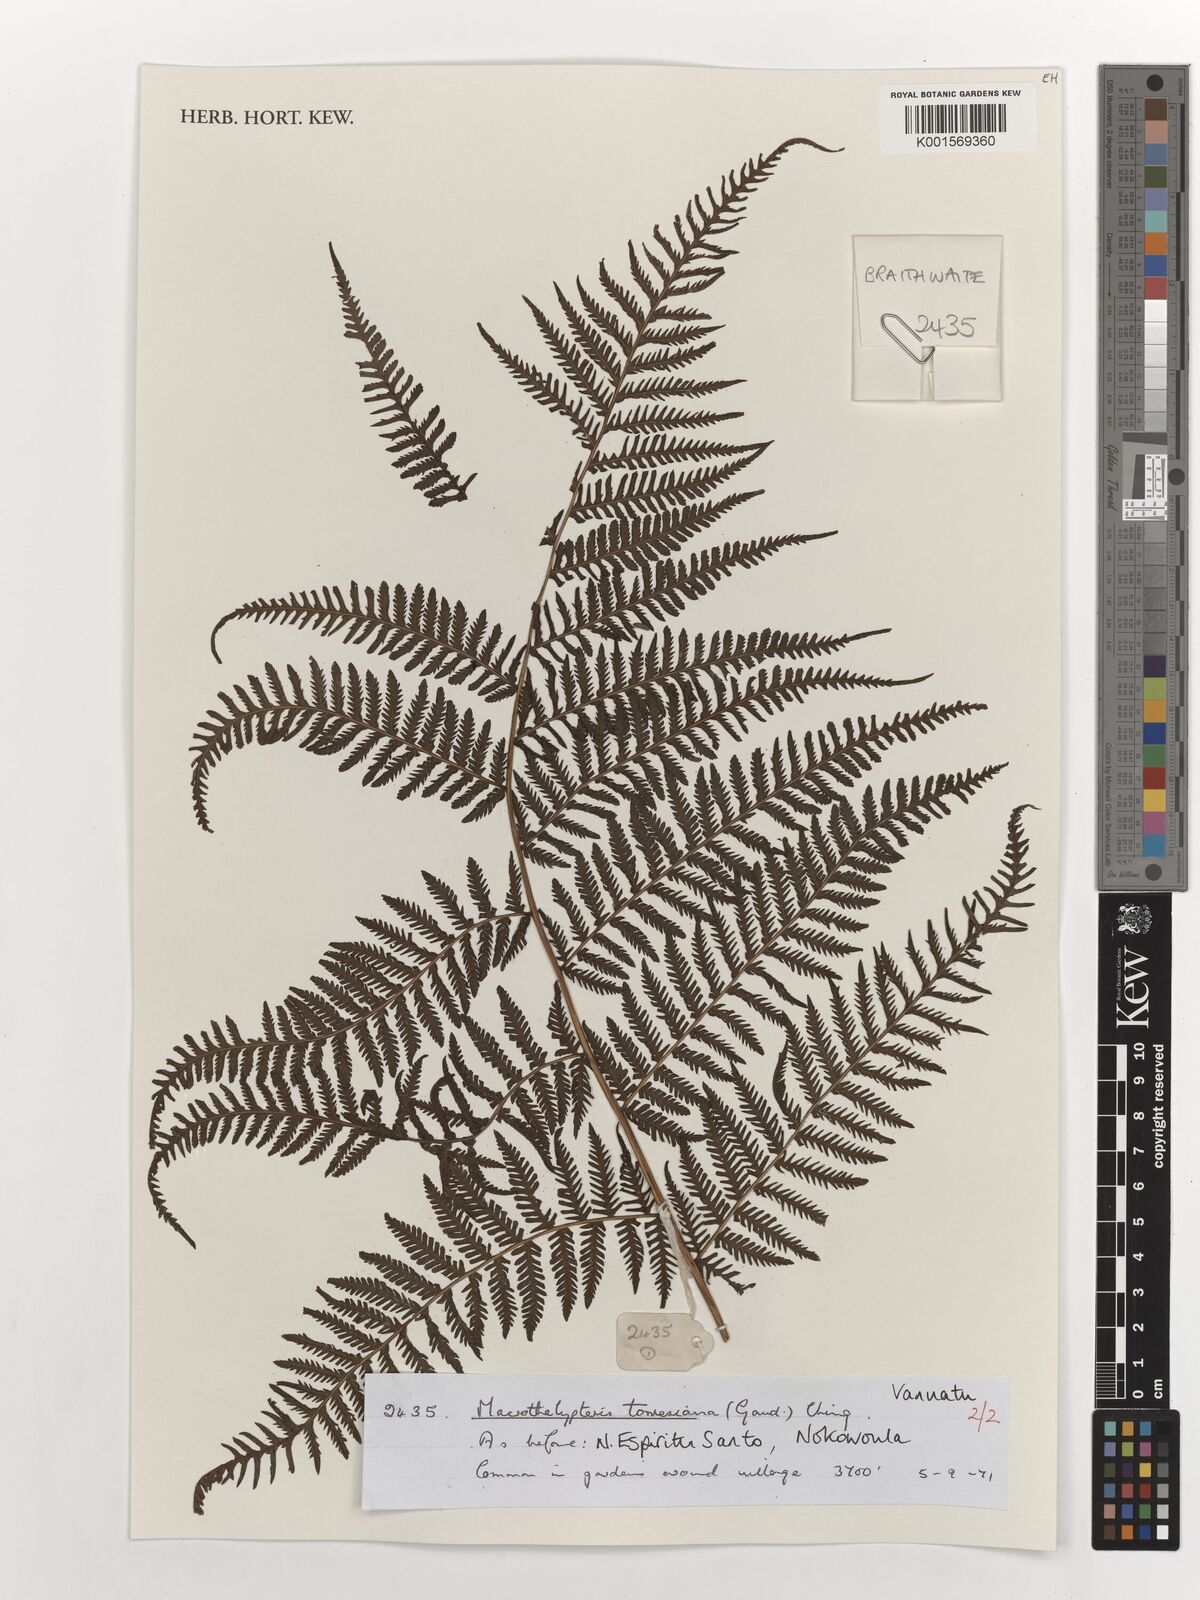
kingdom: Plantae
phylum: Tracheophyta
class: Polypodiopsida
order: Polypodiales
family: Thelypteridaceae
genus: Macrothelypteris
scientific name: Macrothelypteris torresiana
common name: Swordfern
